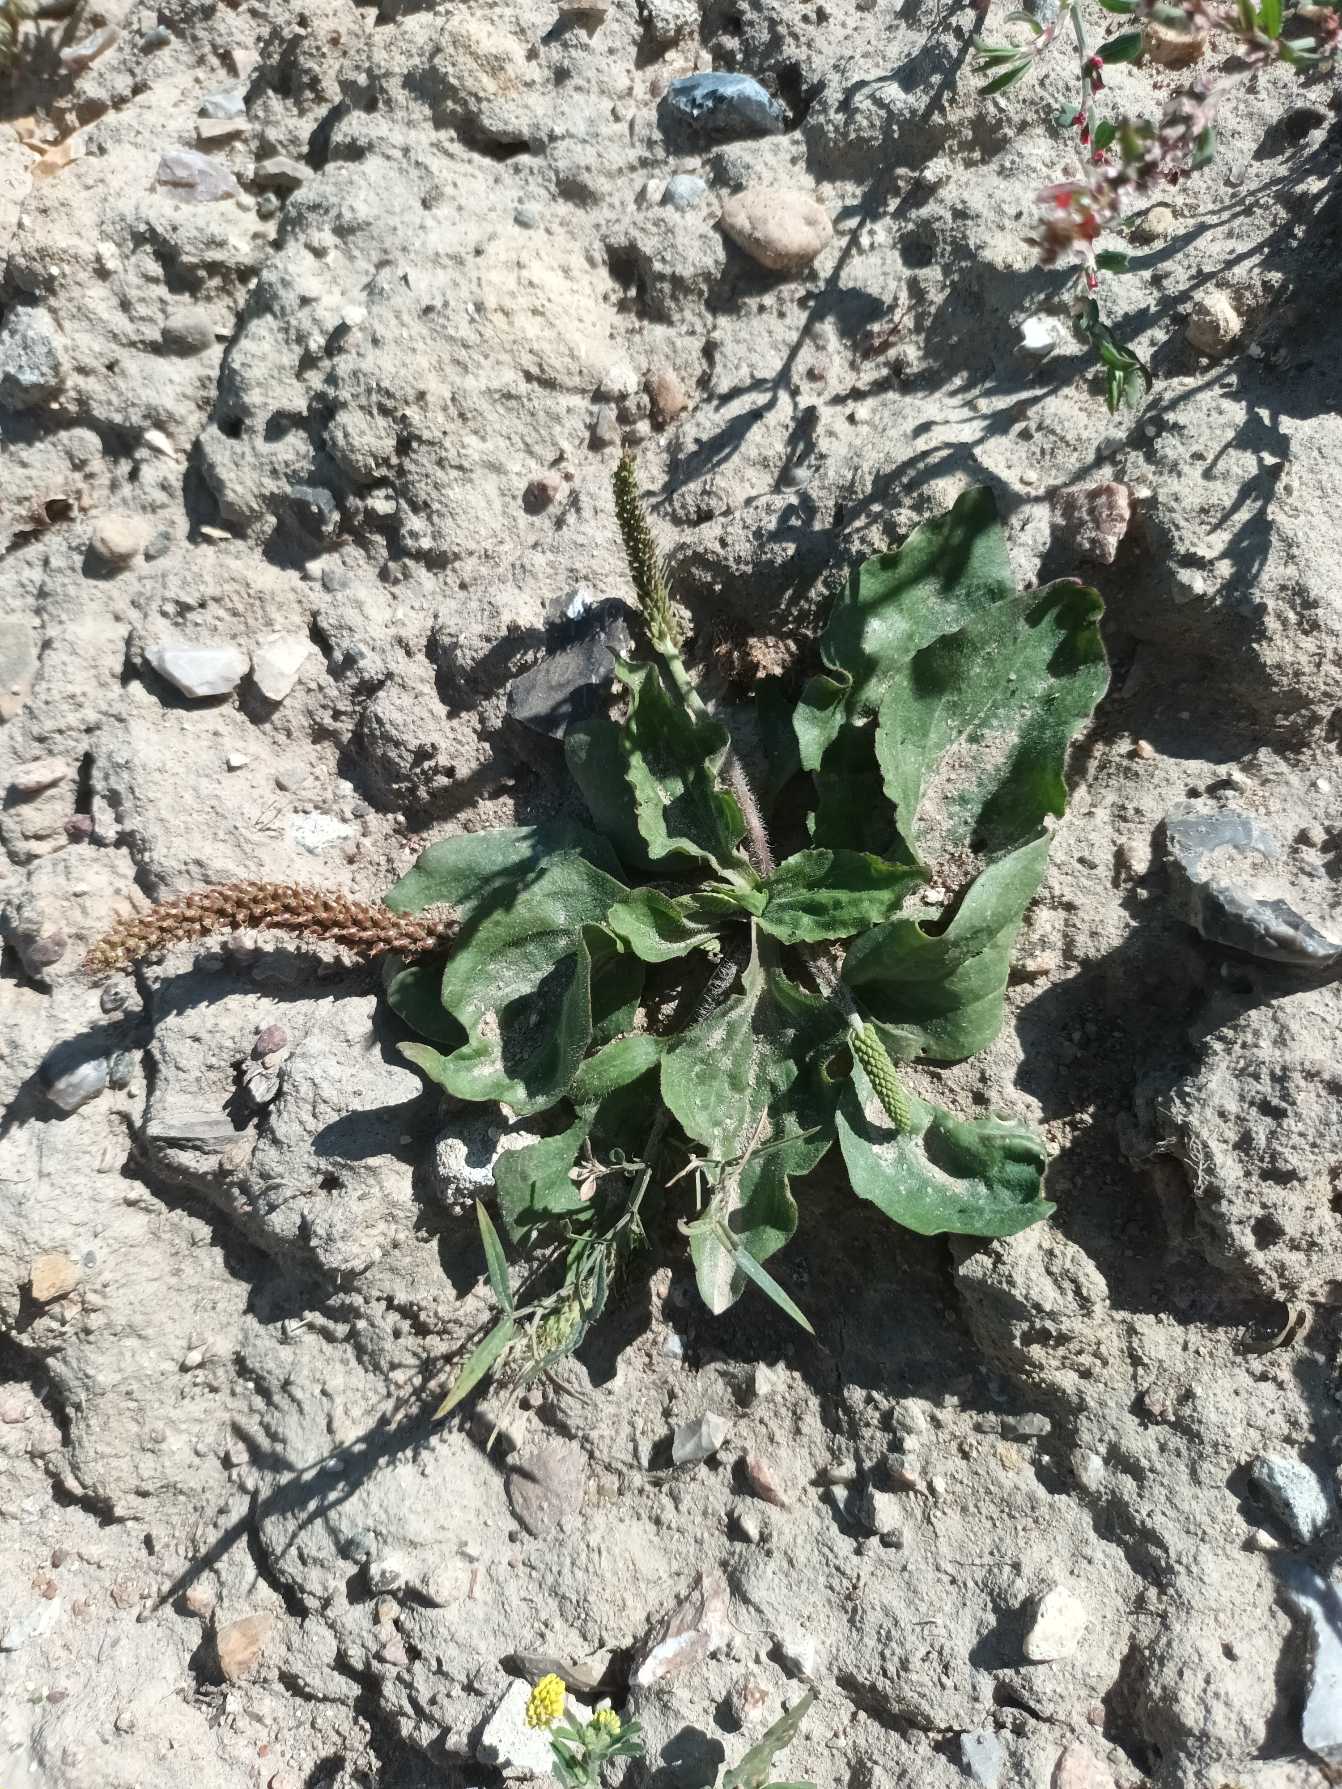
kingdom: Plantae
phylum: Tracheophyta
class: Magnoliopsida
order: Lamiales
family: Plantaginaceae
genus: Plantago
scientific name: Plantago uliginosa
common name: Ager-vejbred
